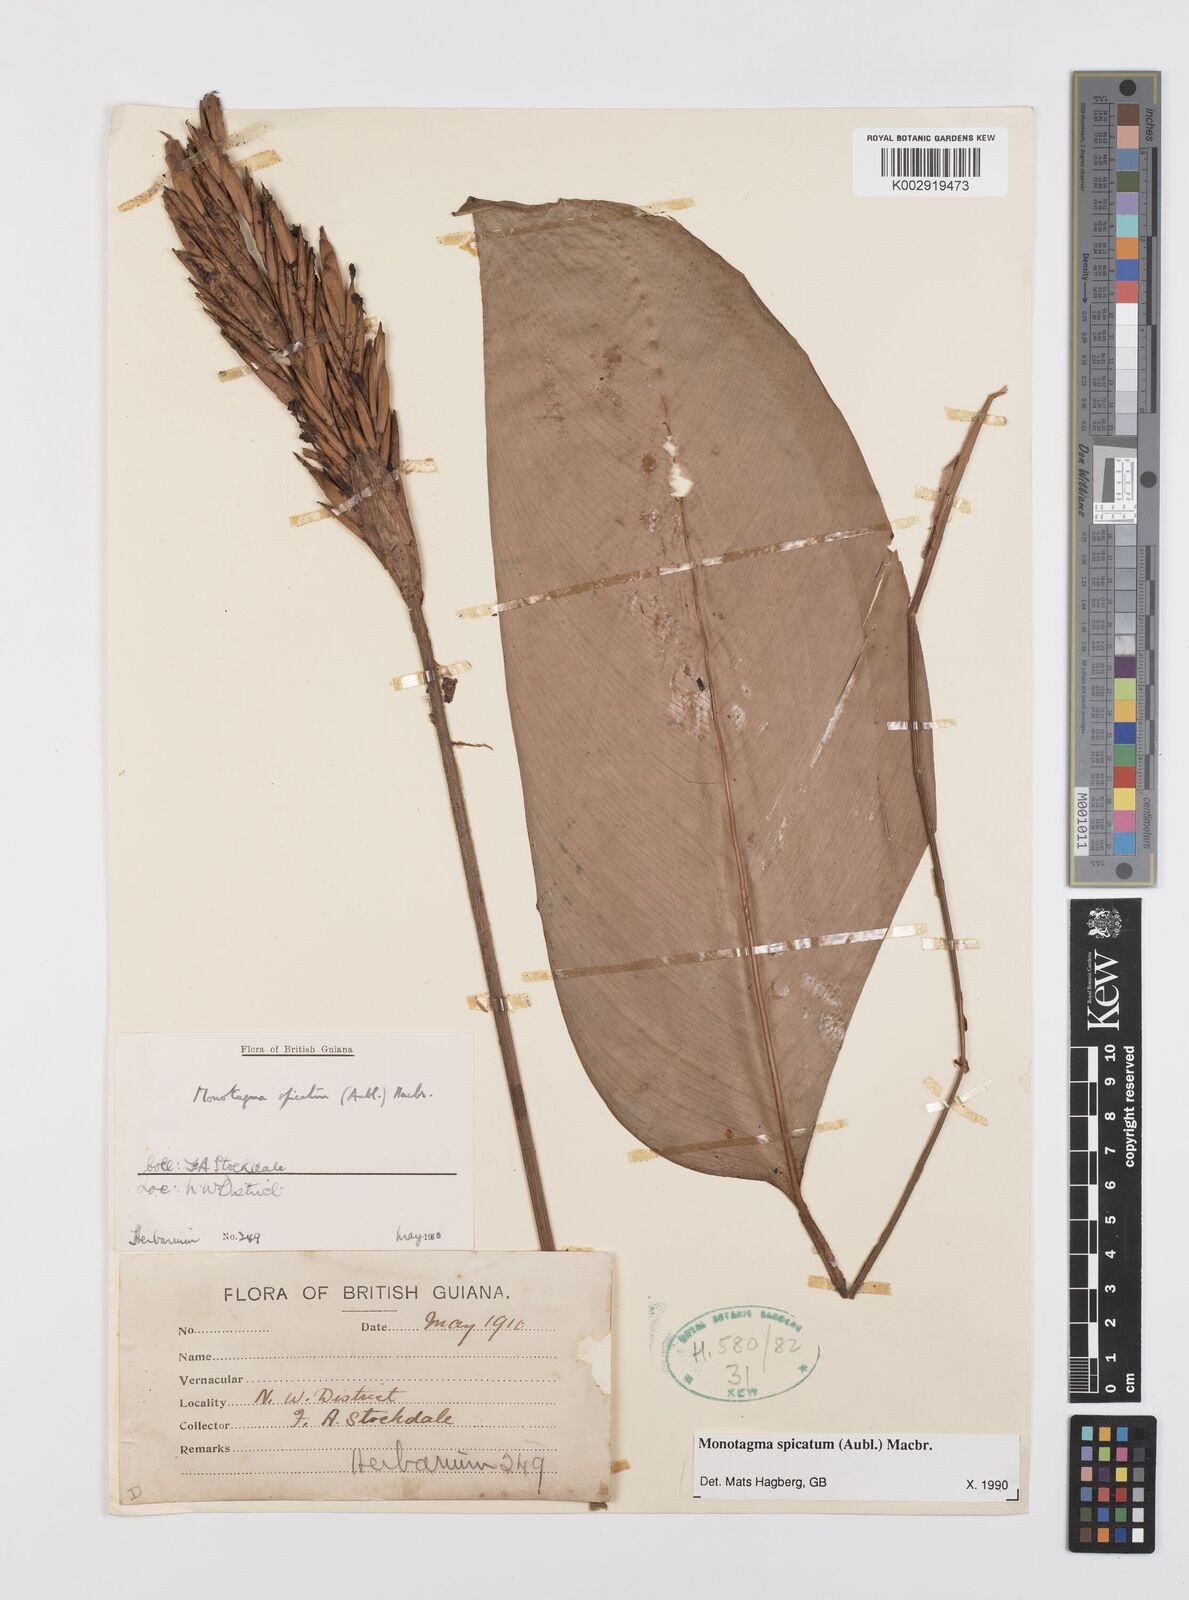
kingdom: Plantae
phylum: Tracheophyta
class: Liliopsida
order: Zingiberales
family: Marantaceae
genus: Monotagma
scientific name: Monotagma spicatum
